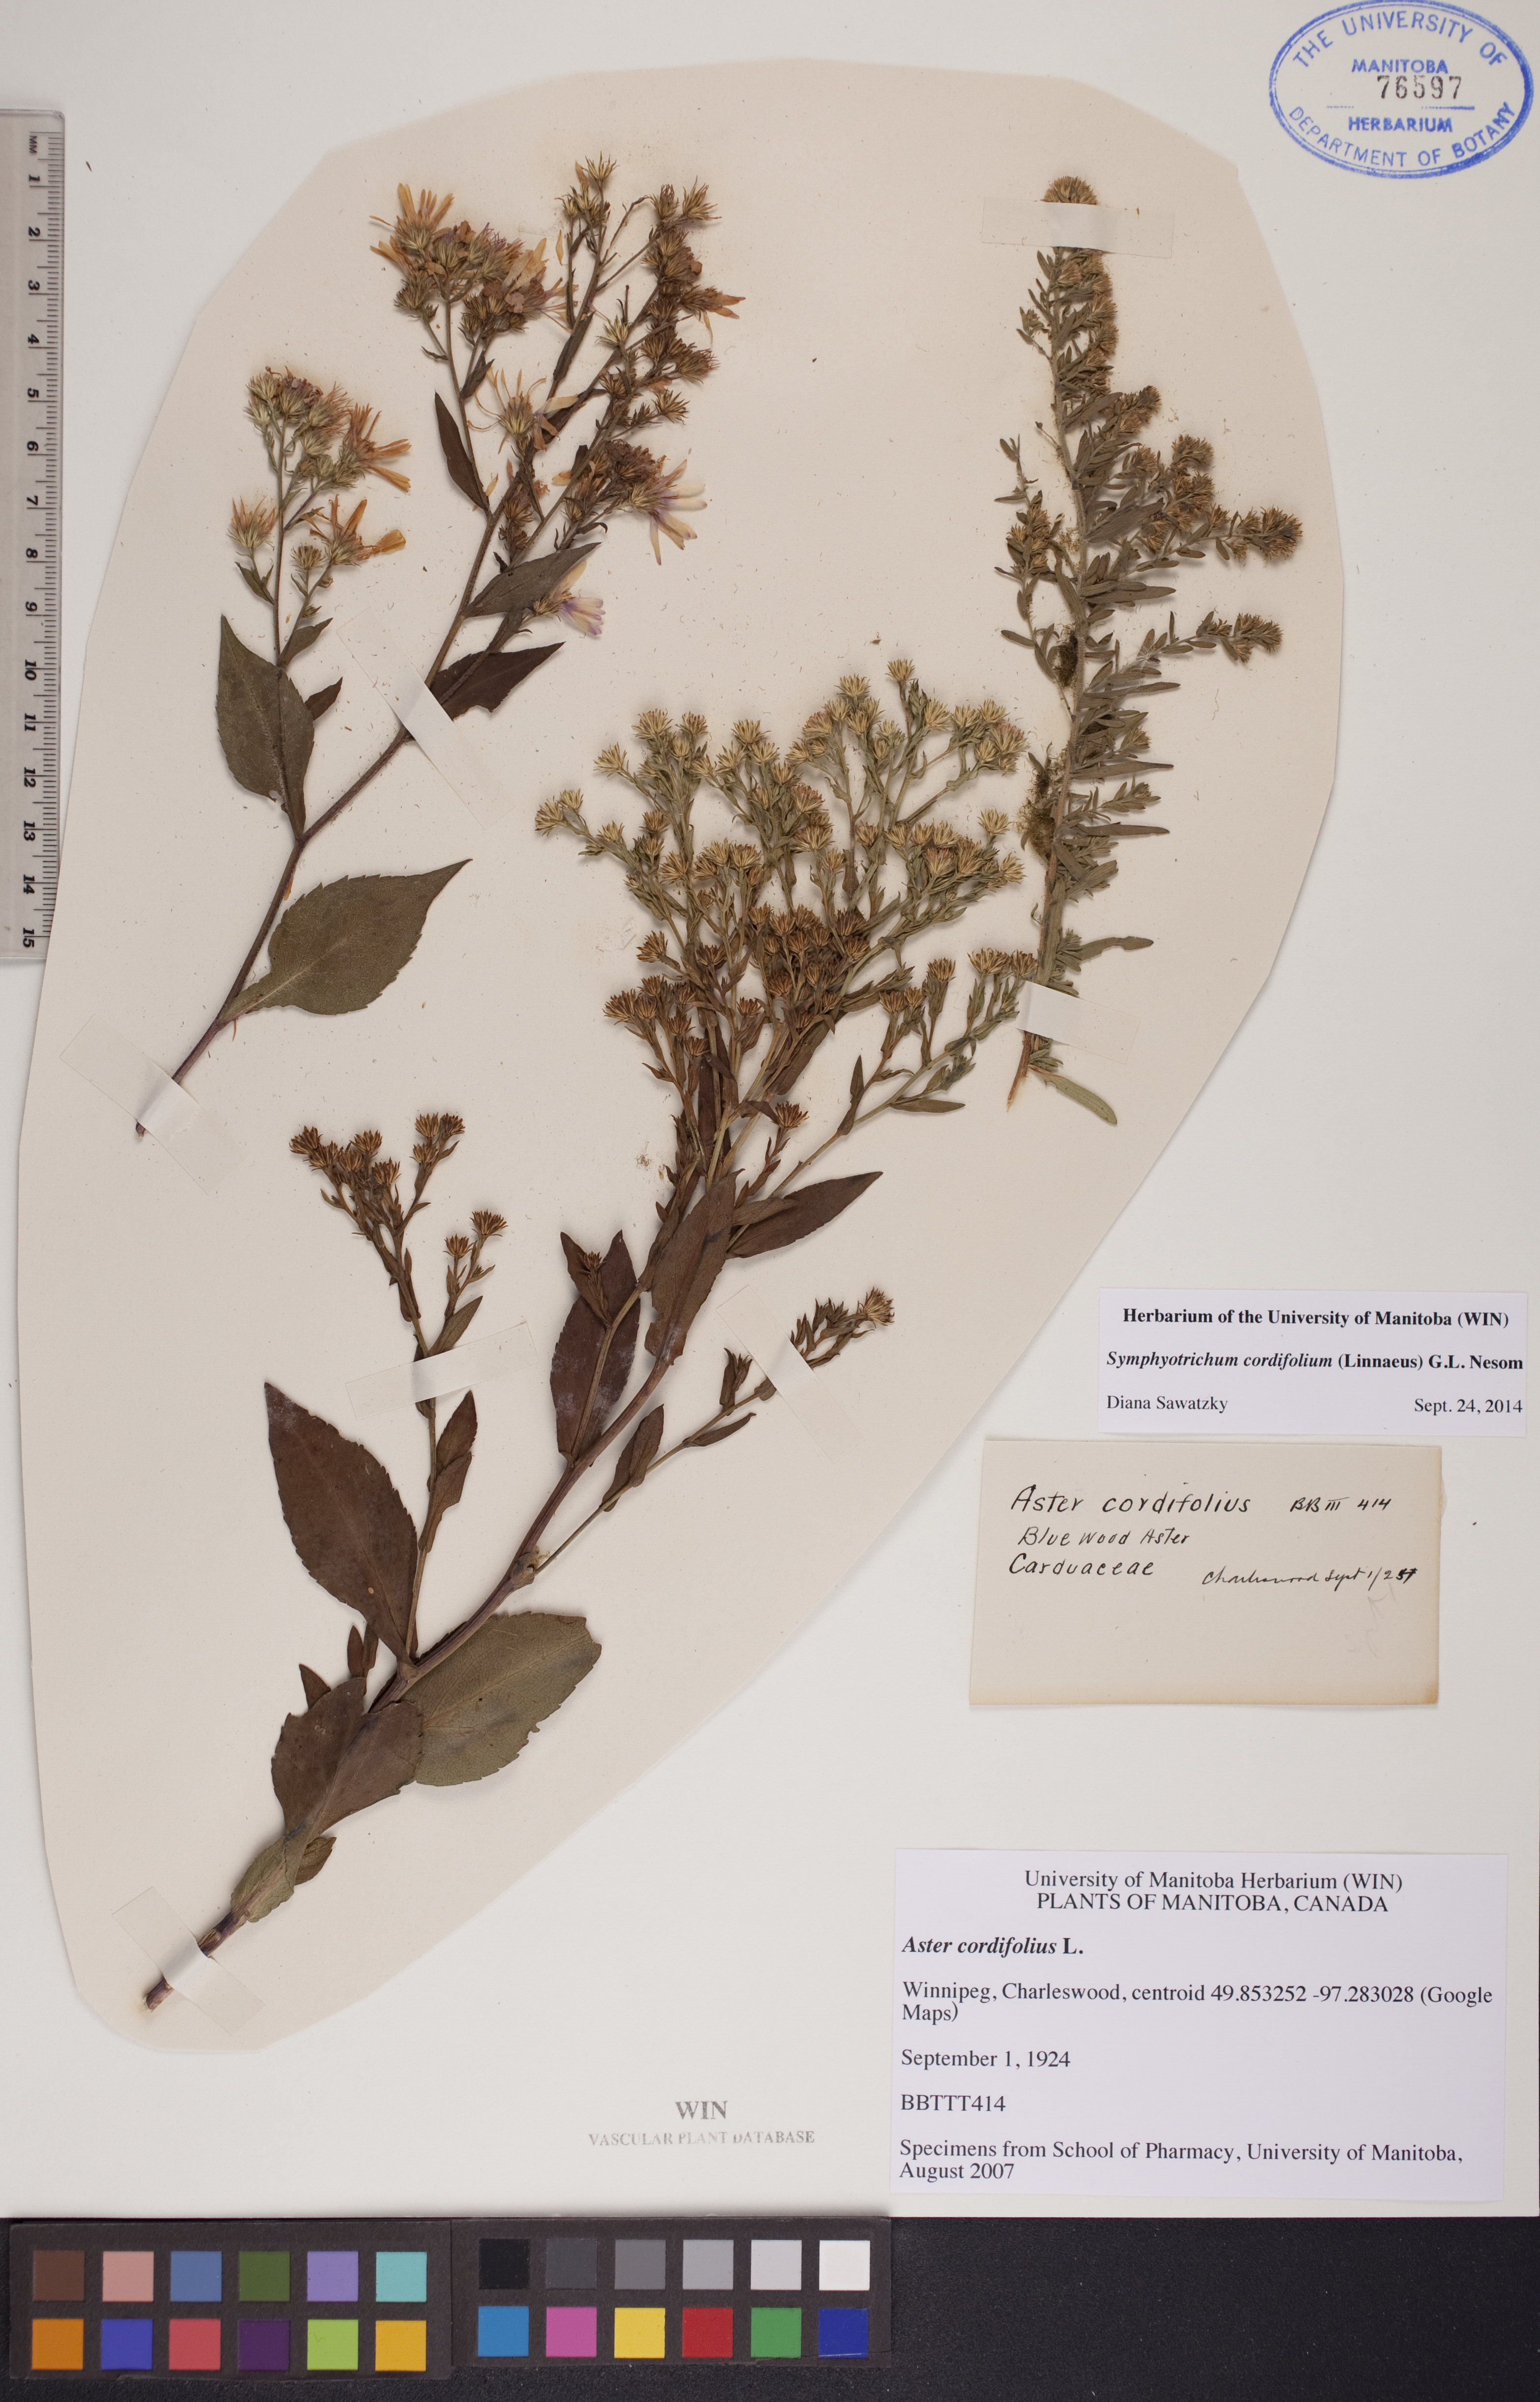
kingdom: Plantae
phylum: Tracheophyta
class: Magnoliopsida
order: Asterales
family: Asteraceae
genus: Symphyotrichum
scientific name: Symphyotrichum cordifolium
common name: Beeweed
